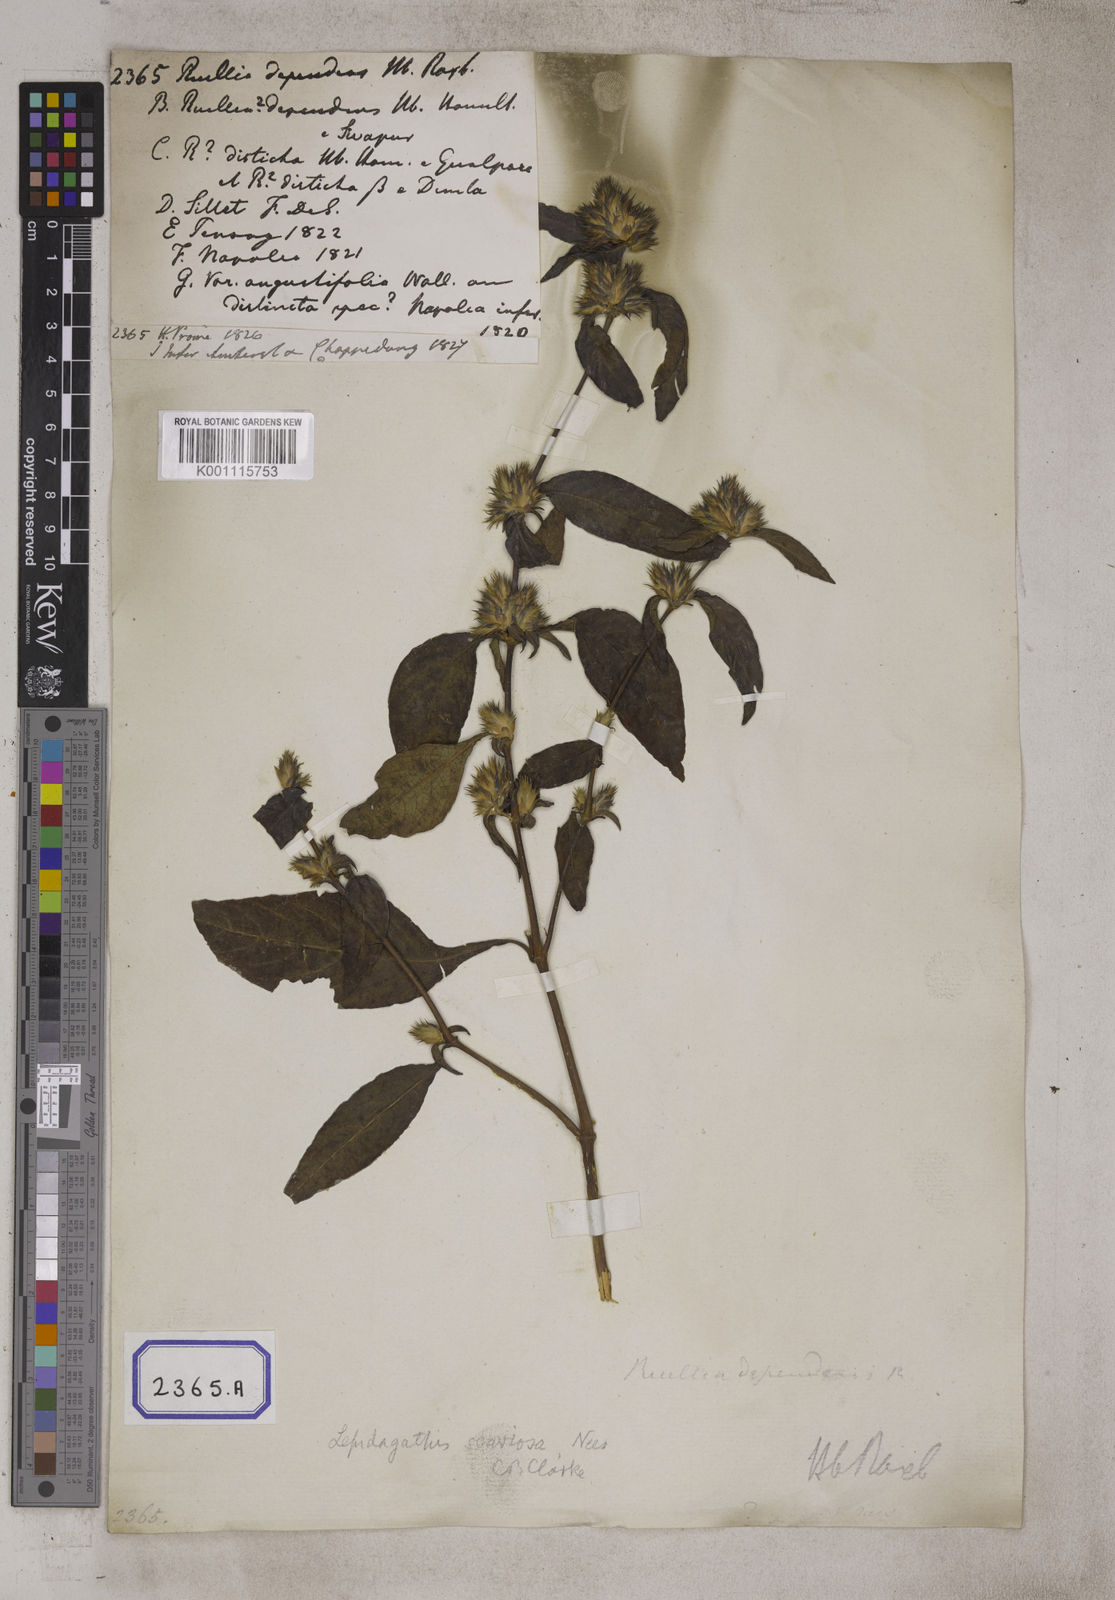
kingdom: Plantae
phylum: Tracheophyta
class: Magnoliopsida
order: Lamiales
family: Acanthaceae
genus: Lepidagathis
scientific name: Lepidagathis incurva
